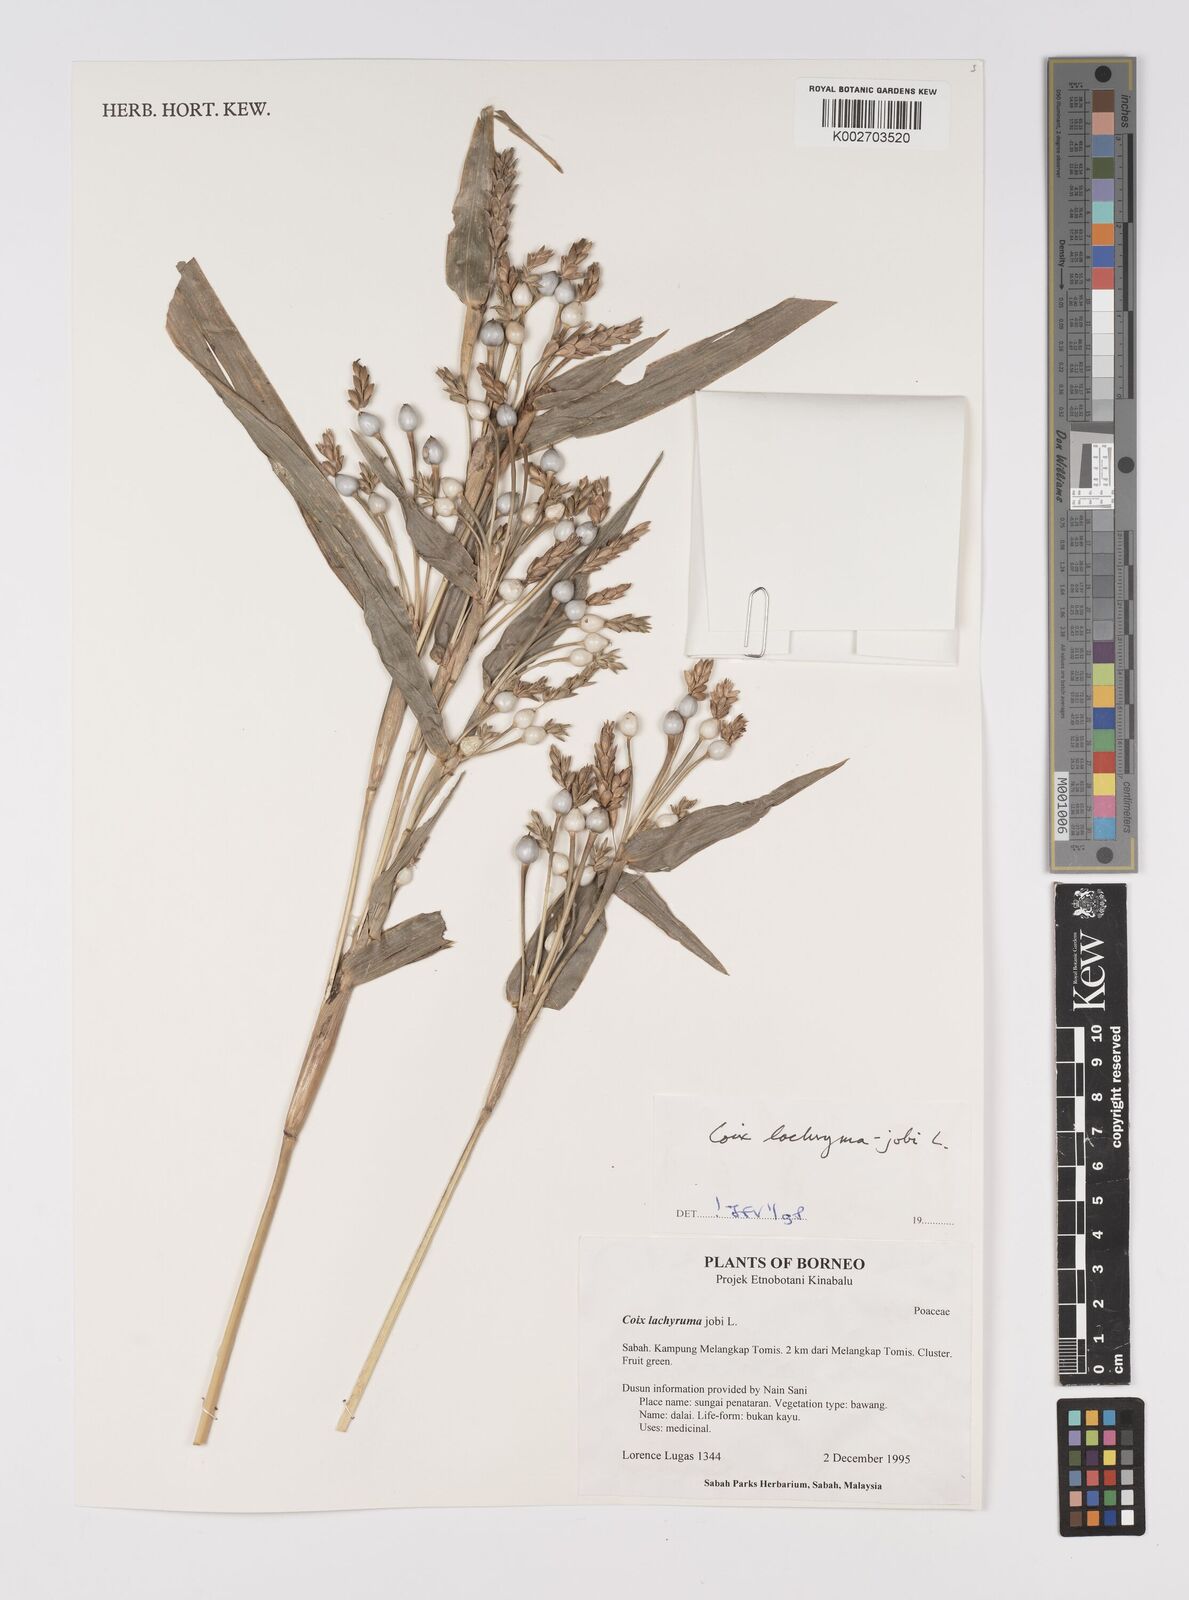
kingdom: Plantae
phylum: Tracheophyta
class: Liliopsida
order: Poales
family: Poaceae
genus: Coix
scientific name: Coix lacryma-jobi
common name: Job's tears
